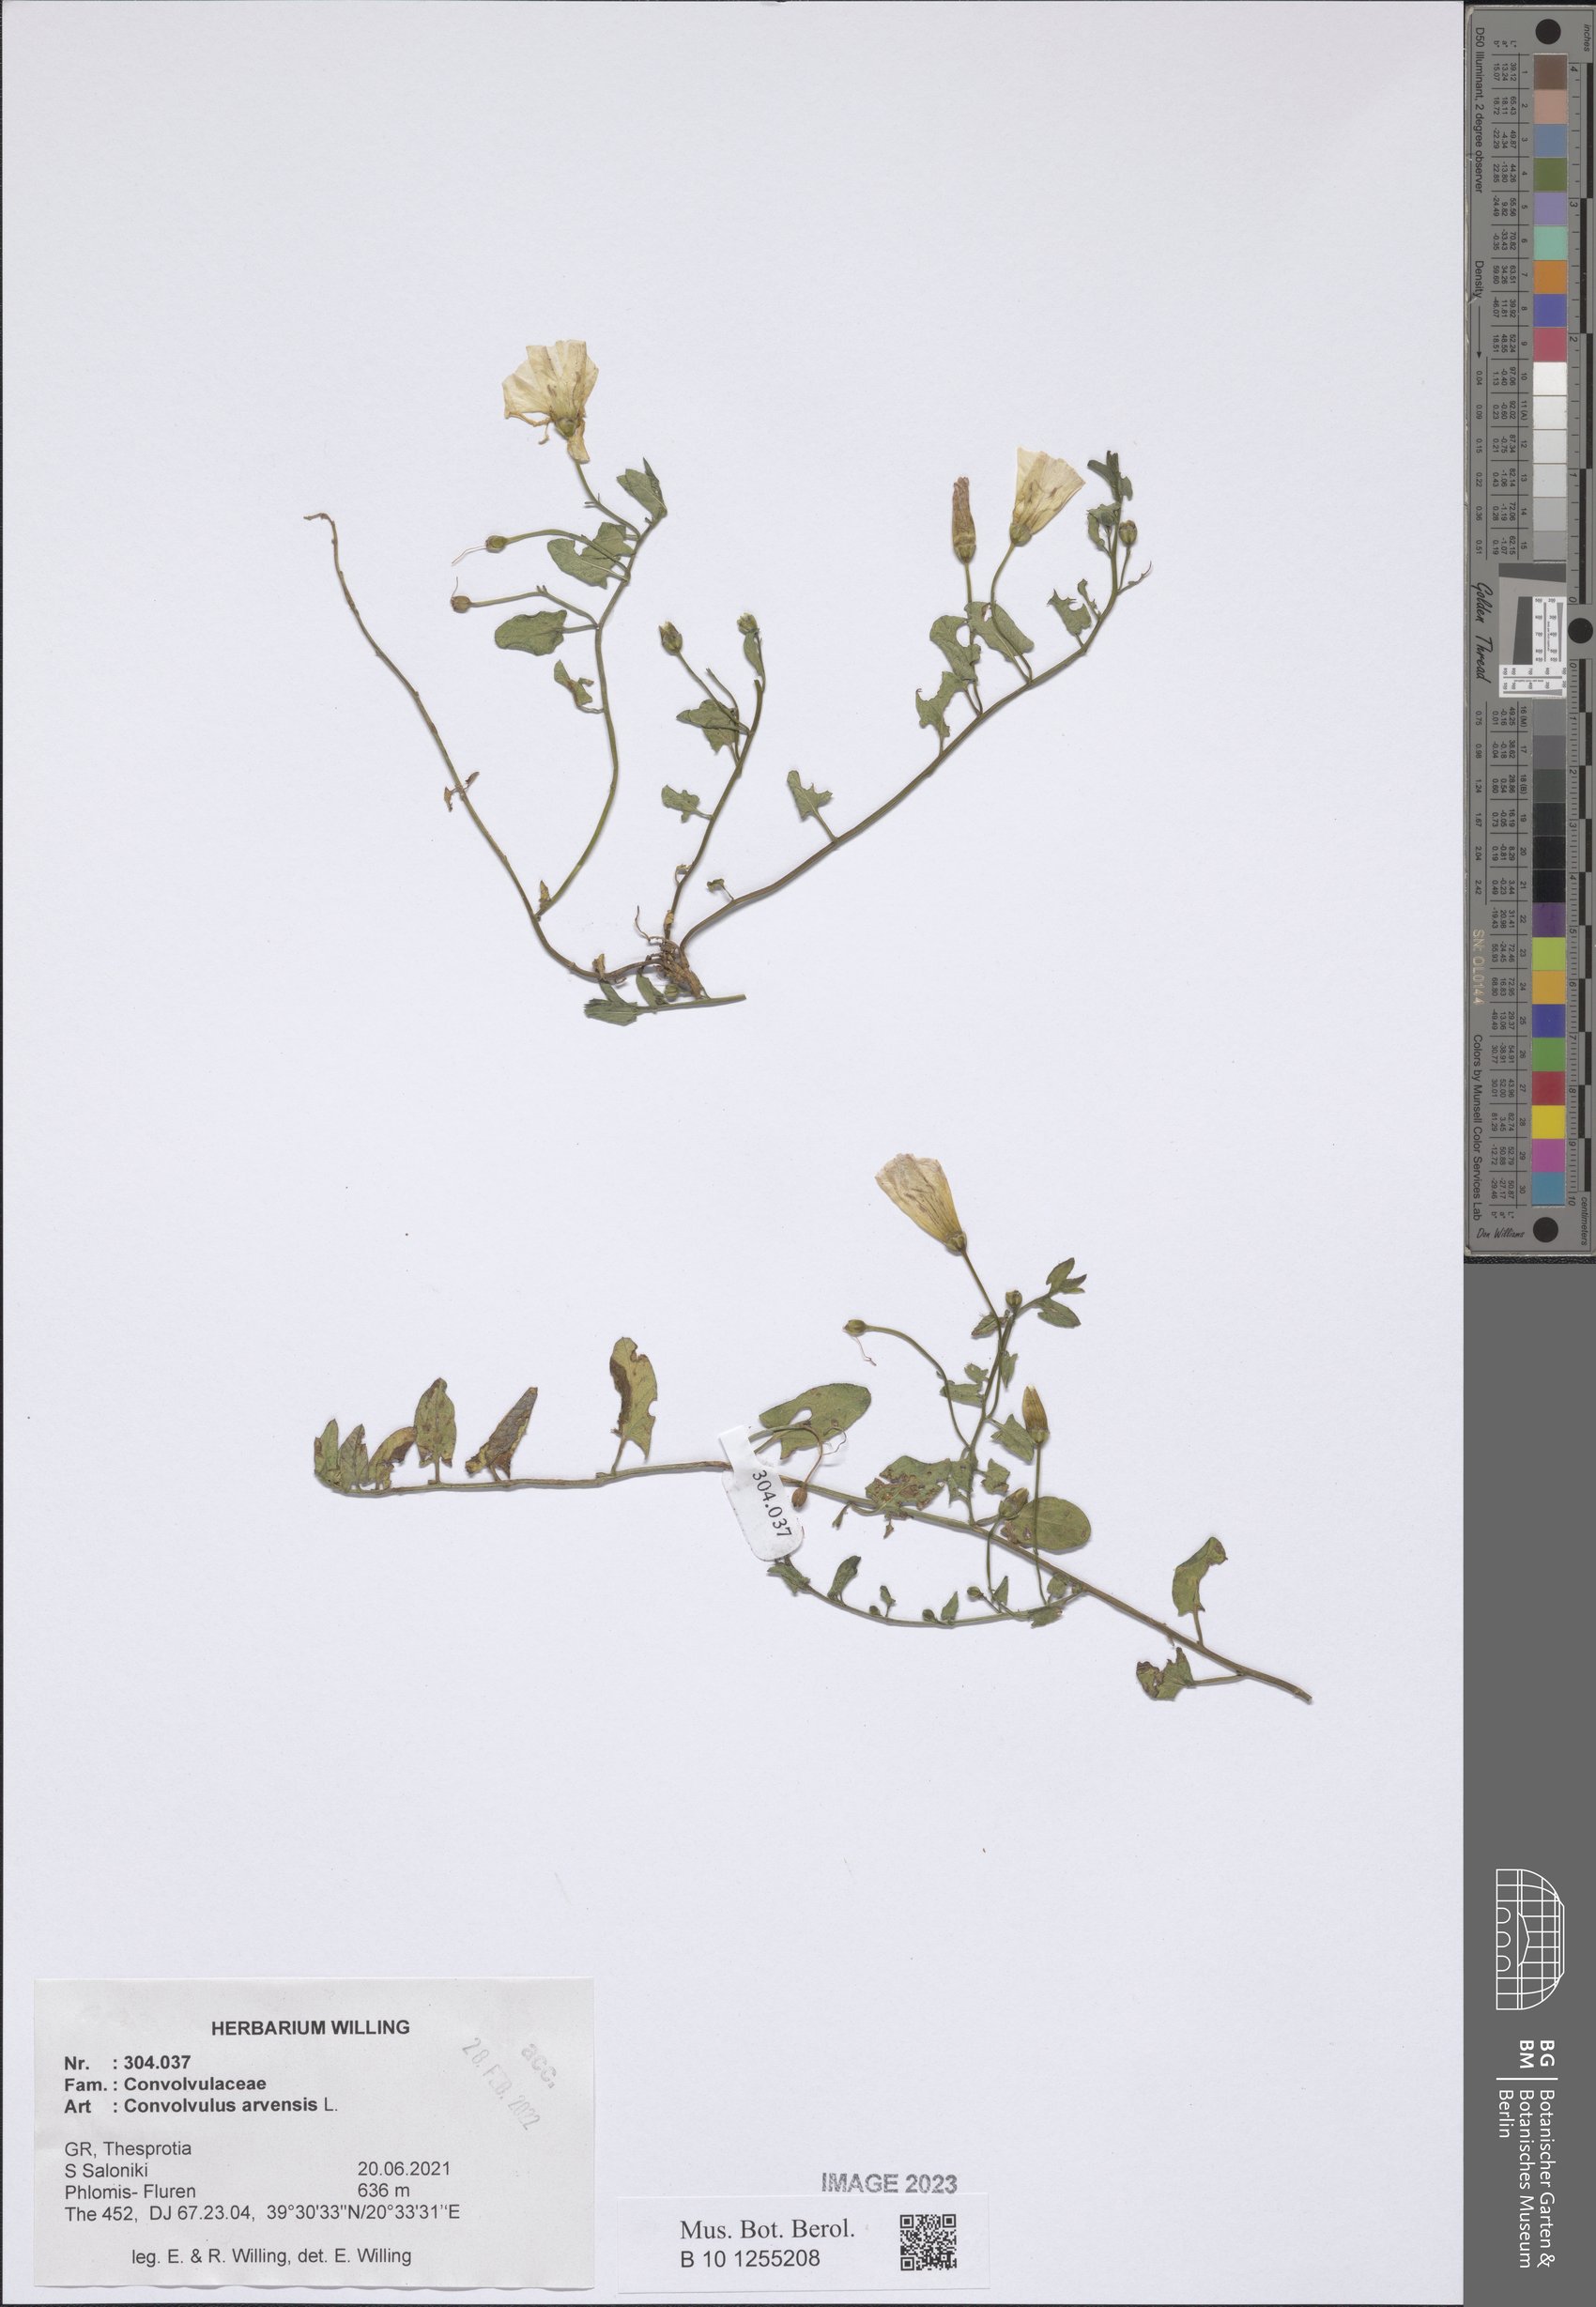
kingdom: Plantae
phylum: Tracheophyta
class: Magnoliopsida
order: Solanales
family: Convolvulaceae
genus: Convolvulus
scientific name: Convolvulus arvensis
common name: Field bindweed
